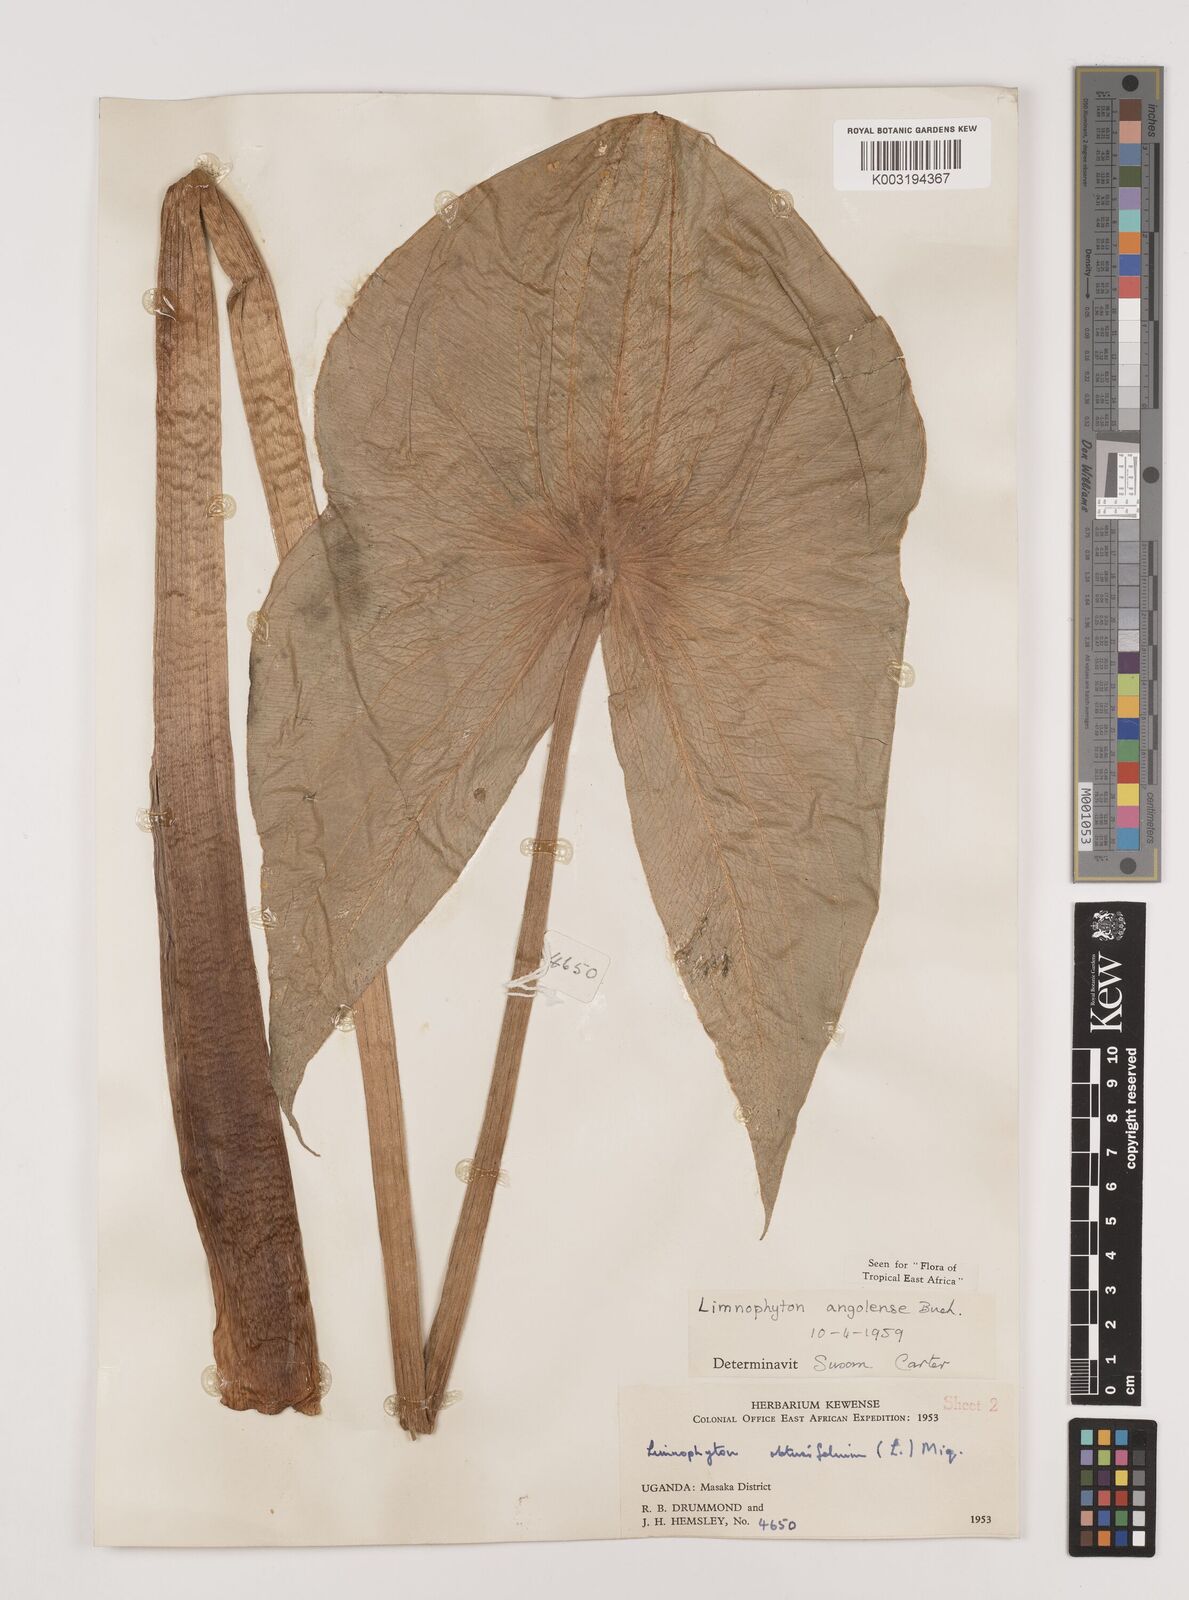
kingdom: Plantae
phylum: Tracheophyta
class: Liliopsida
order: Alismatales
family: Alismataceae
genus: Limnophyton
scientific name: Limnophyton angolense
